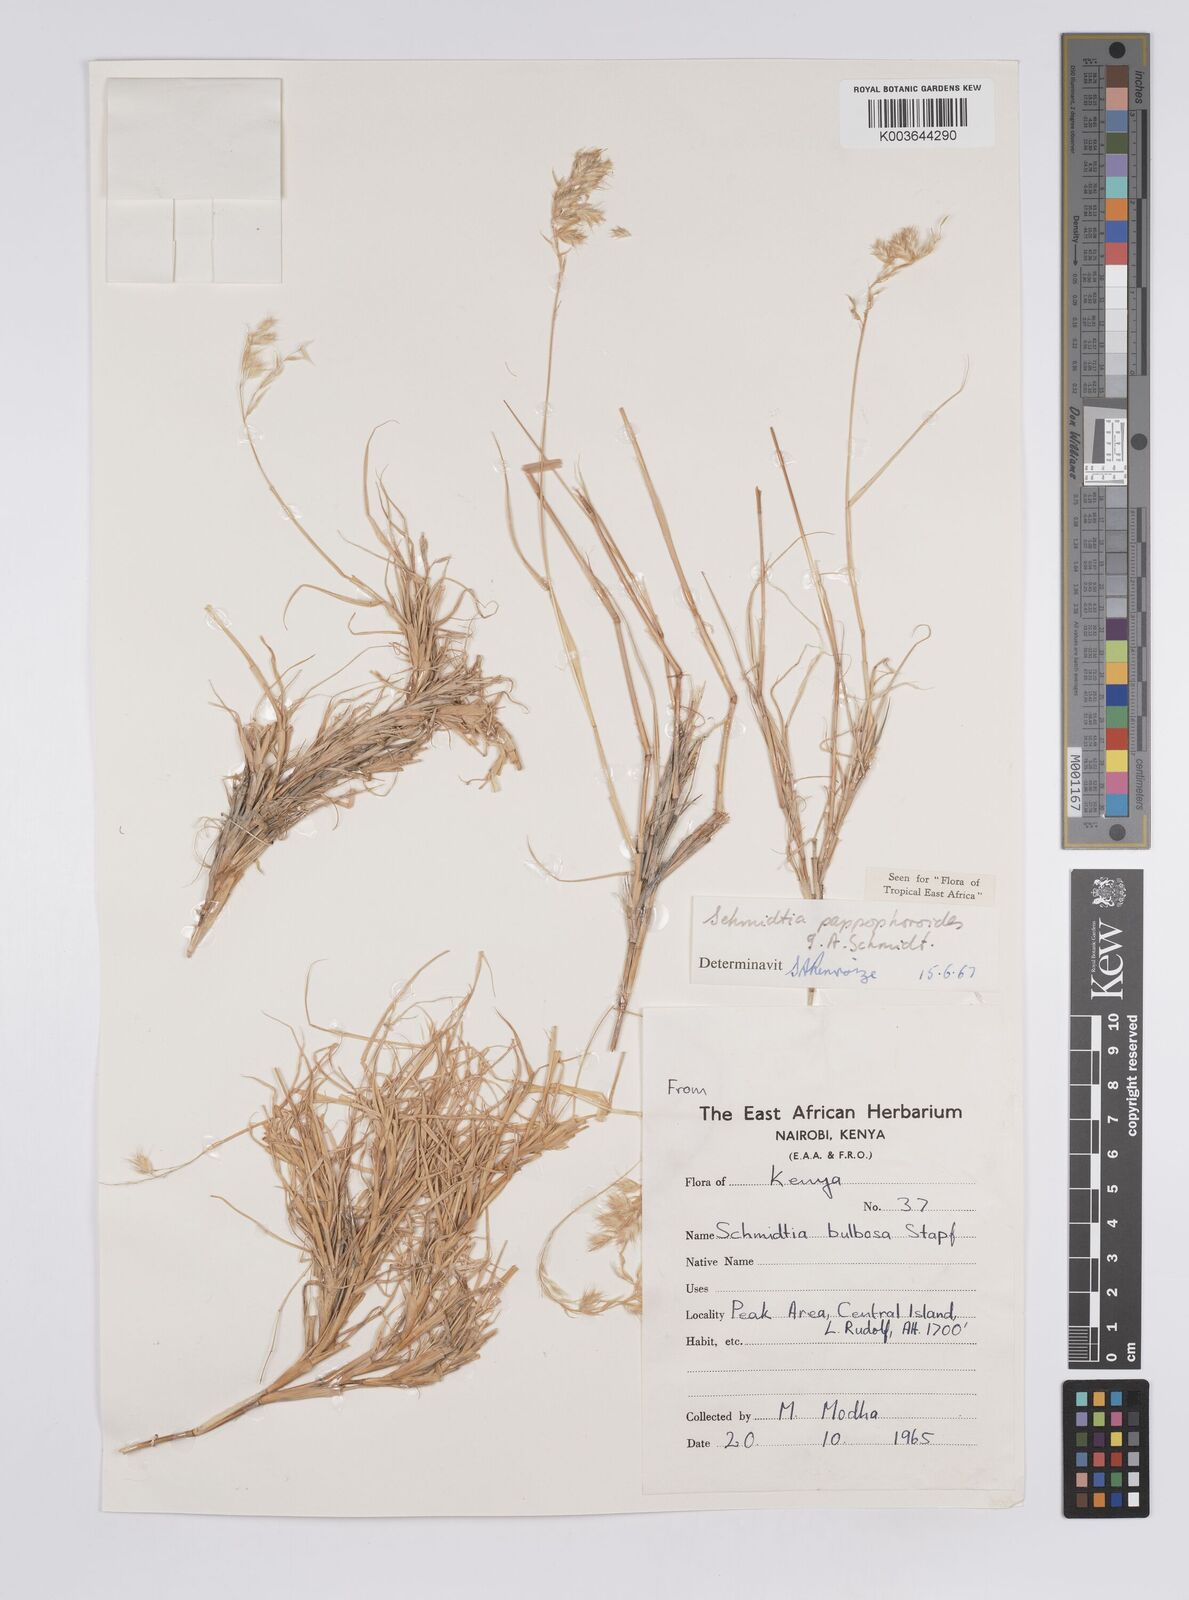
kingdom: Plantae
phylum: Tracheophyta
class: Liliopsida
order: Poales
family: Poaceae
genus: Schmidtia
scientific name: Schmidtia pappophoroides
